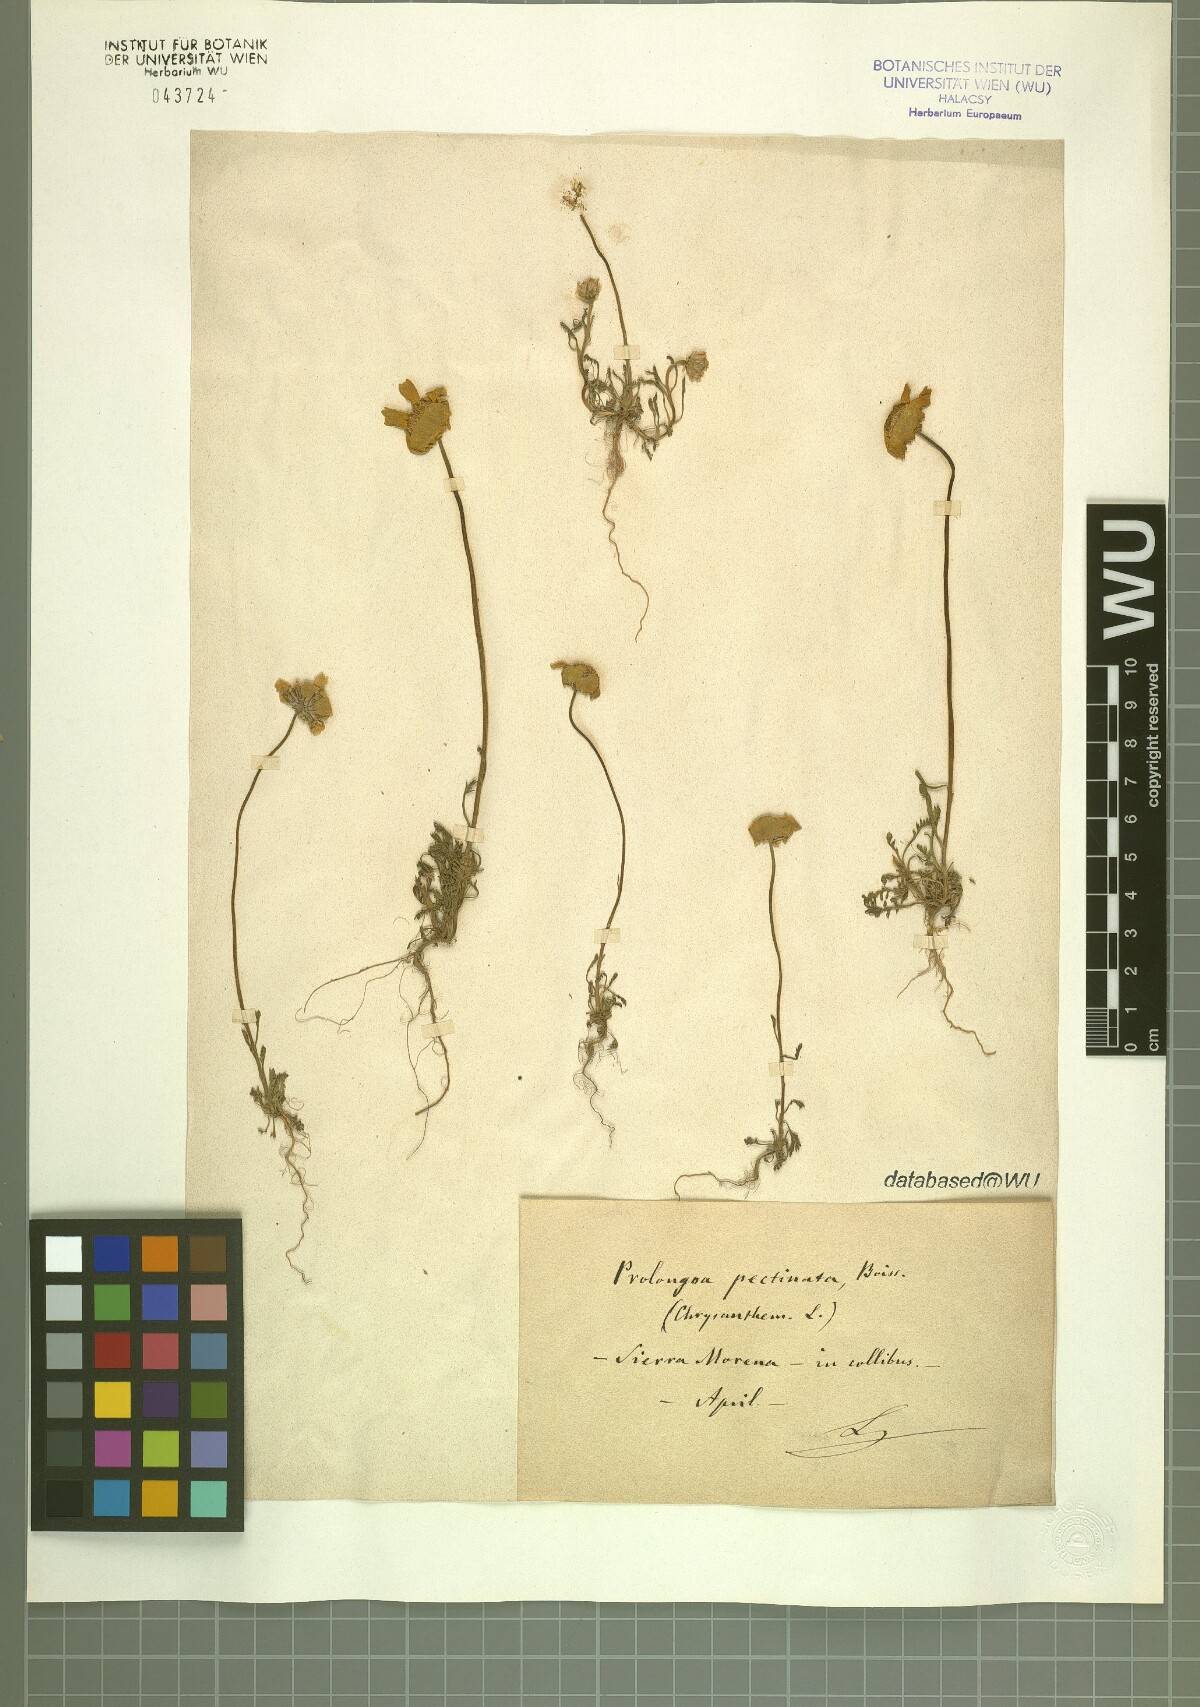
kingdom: Plantae
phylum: Tracheophyta
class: Magnoliopsida
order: Asterales
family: Asteraceae
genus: Leucanthemopsis
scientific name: Leucanthemopsis pectinata
